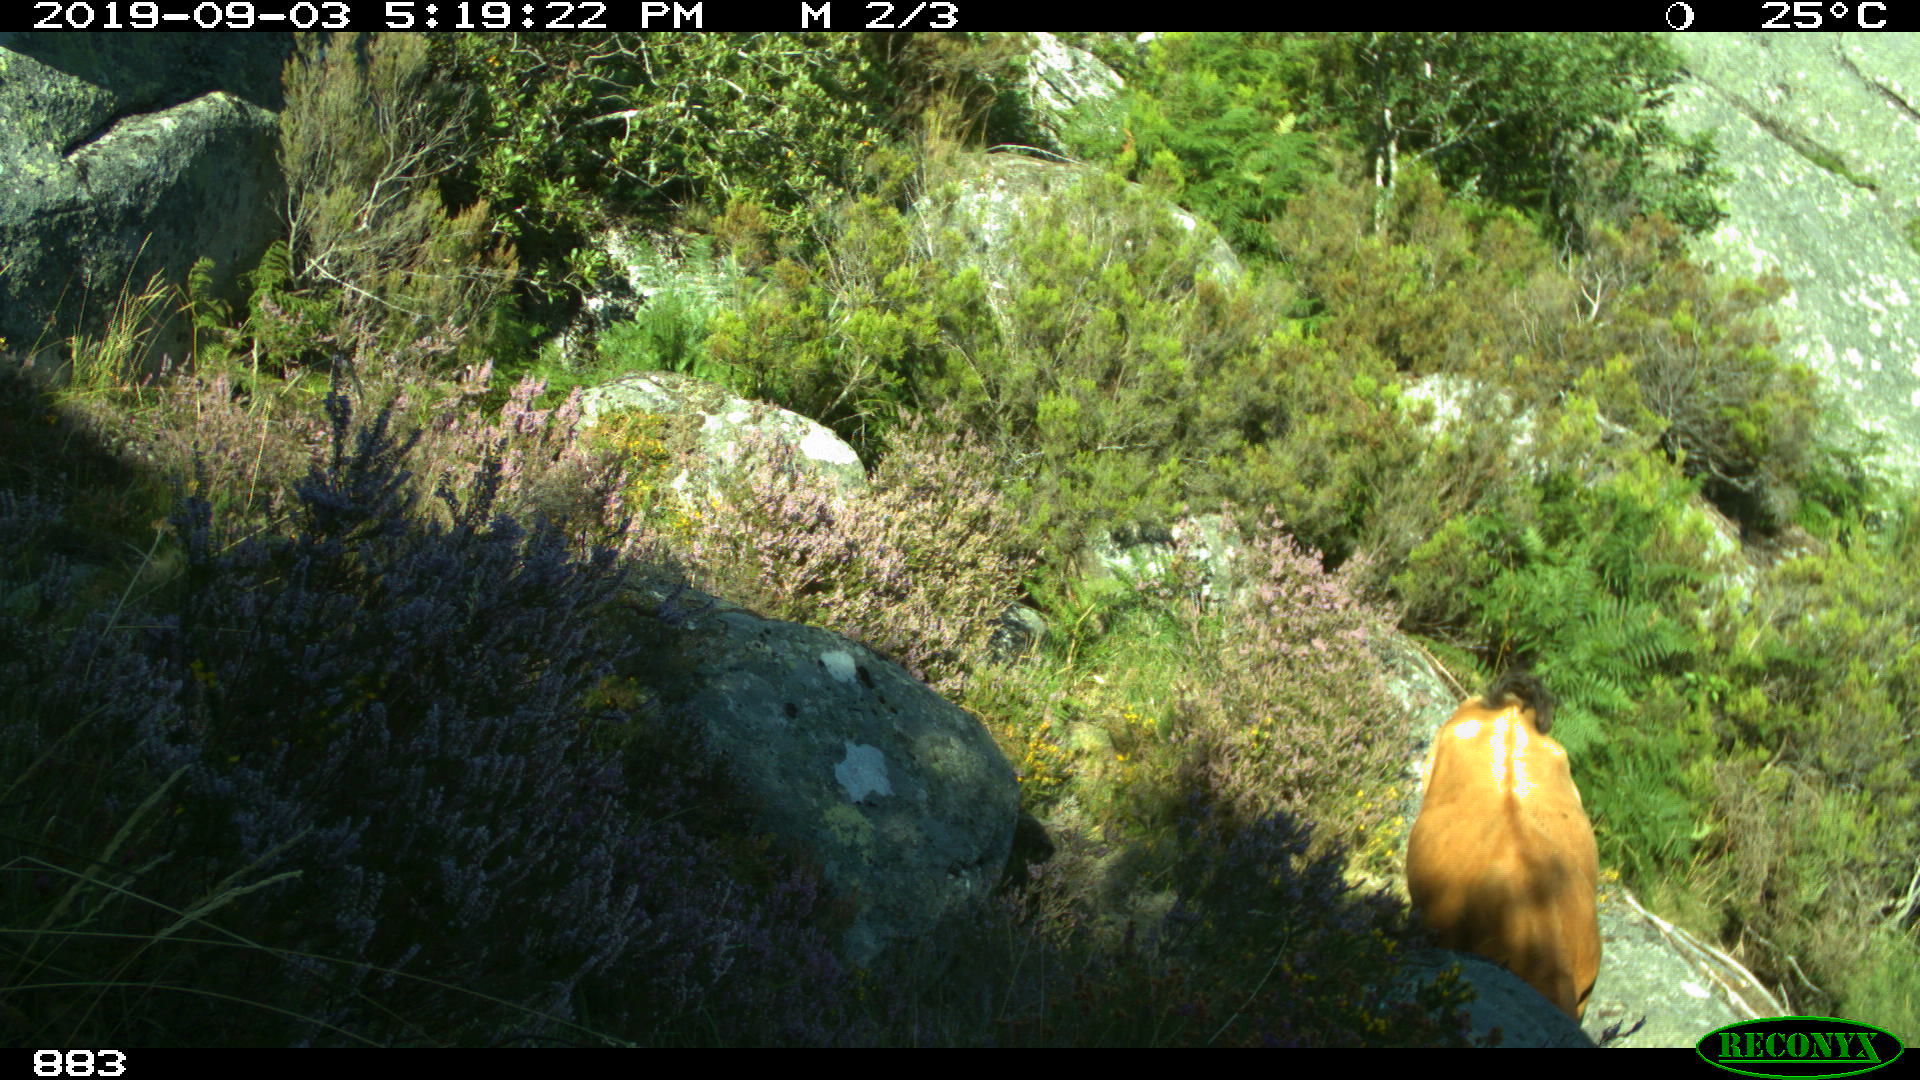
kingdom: Animalia
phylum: Chordata
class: Mammalia
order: Artiodactyla
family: Bovidae
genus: Bos
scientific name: Bos taurus
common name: Domesticated cattle
